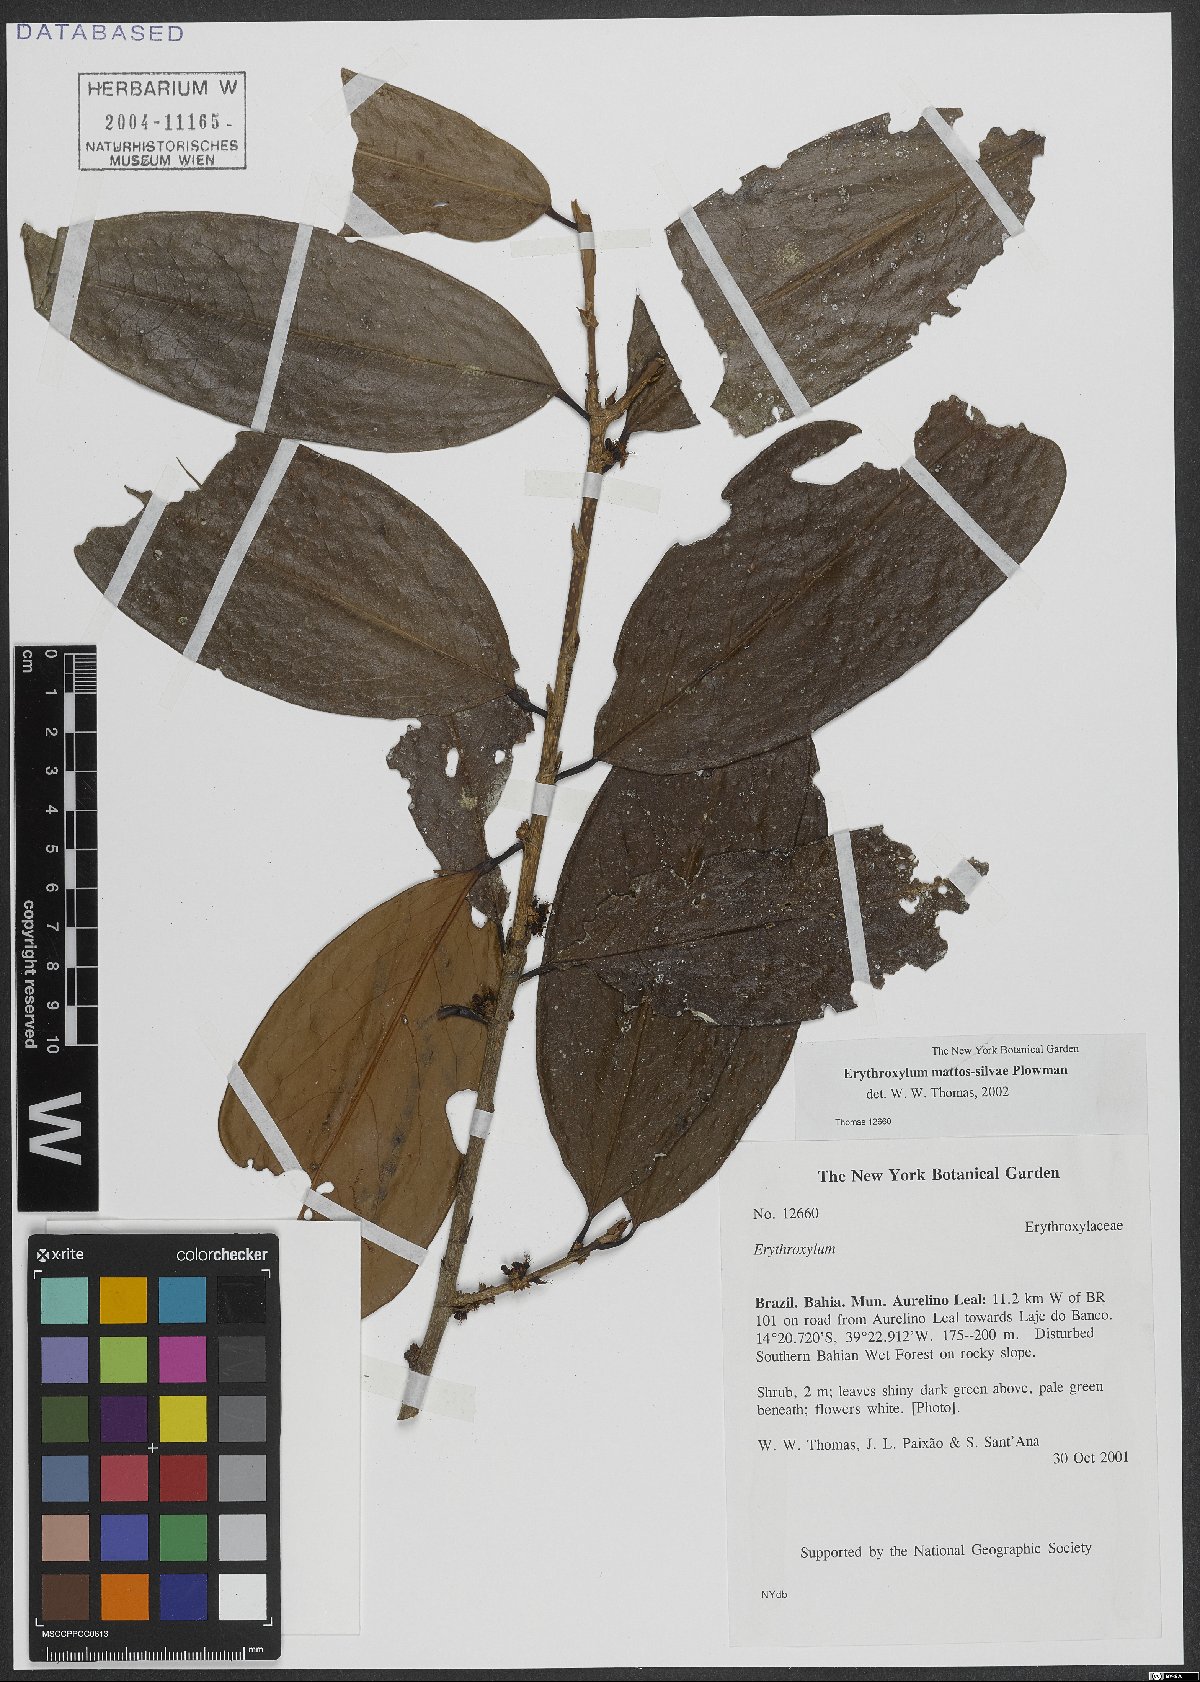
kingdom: Plantae
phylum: Tracheophyta
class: Magnoliopsida
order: Malpighiales
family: Erythroxylaceae
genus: Erythroxylum
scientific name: Erythroxylum mattos-silvae
